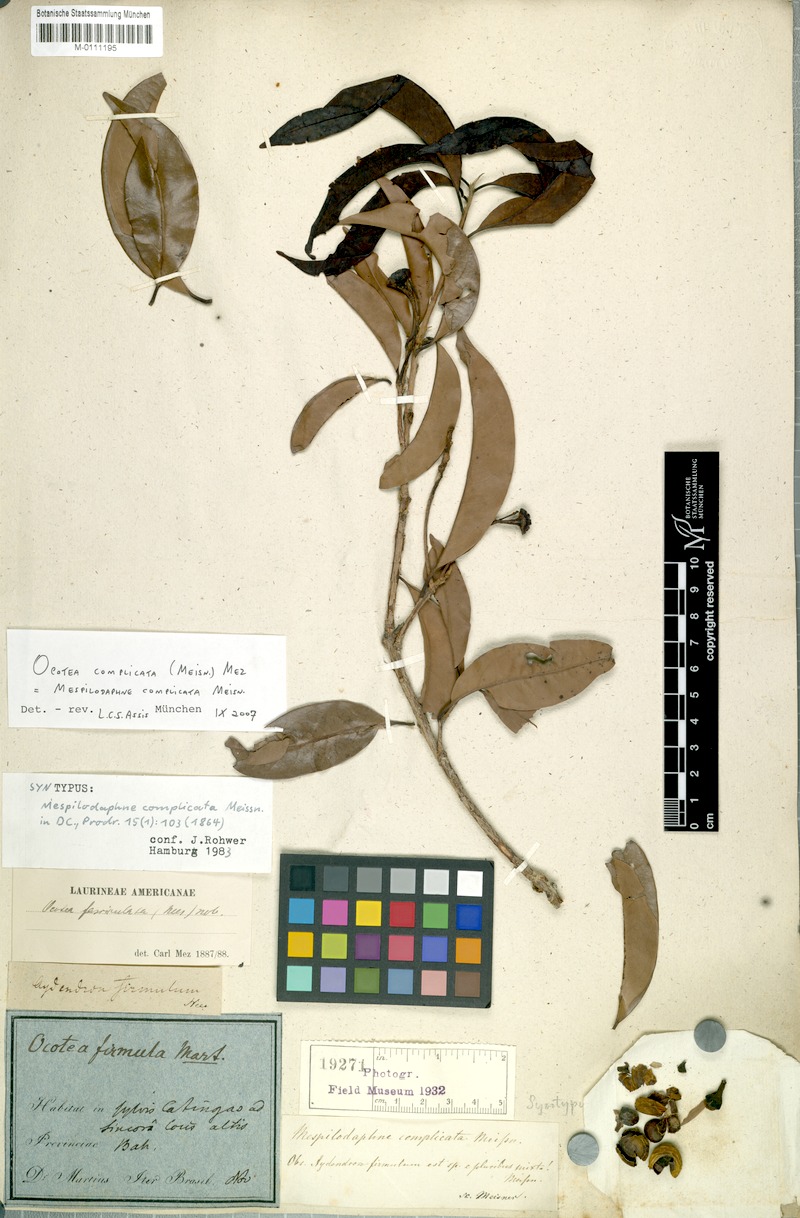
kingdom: Plantae
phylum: Tracheophyta
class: Magnoliopsida
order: Laurales
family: Lauraceae
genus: Mespilodaphne
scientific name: Mespilodaphne complicata
